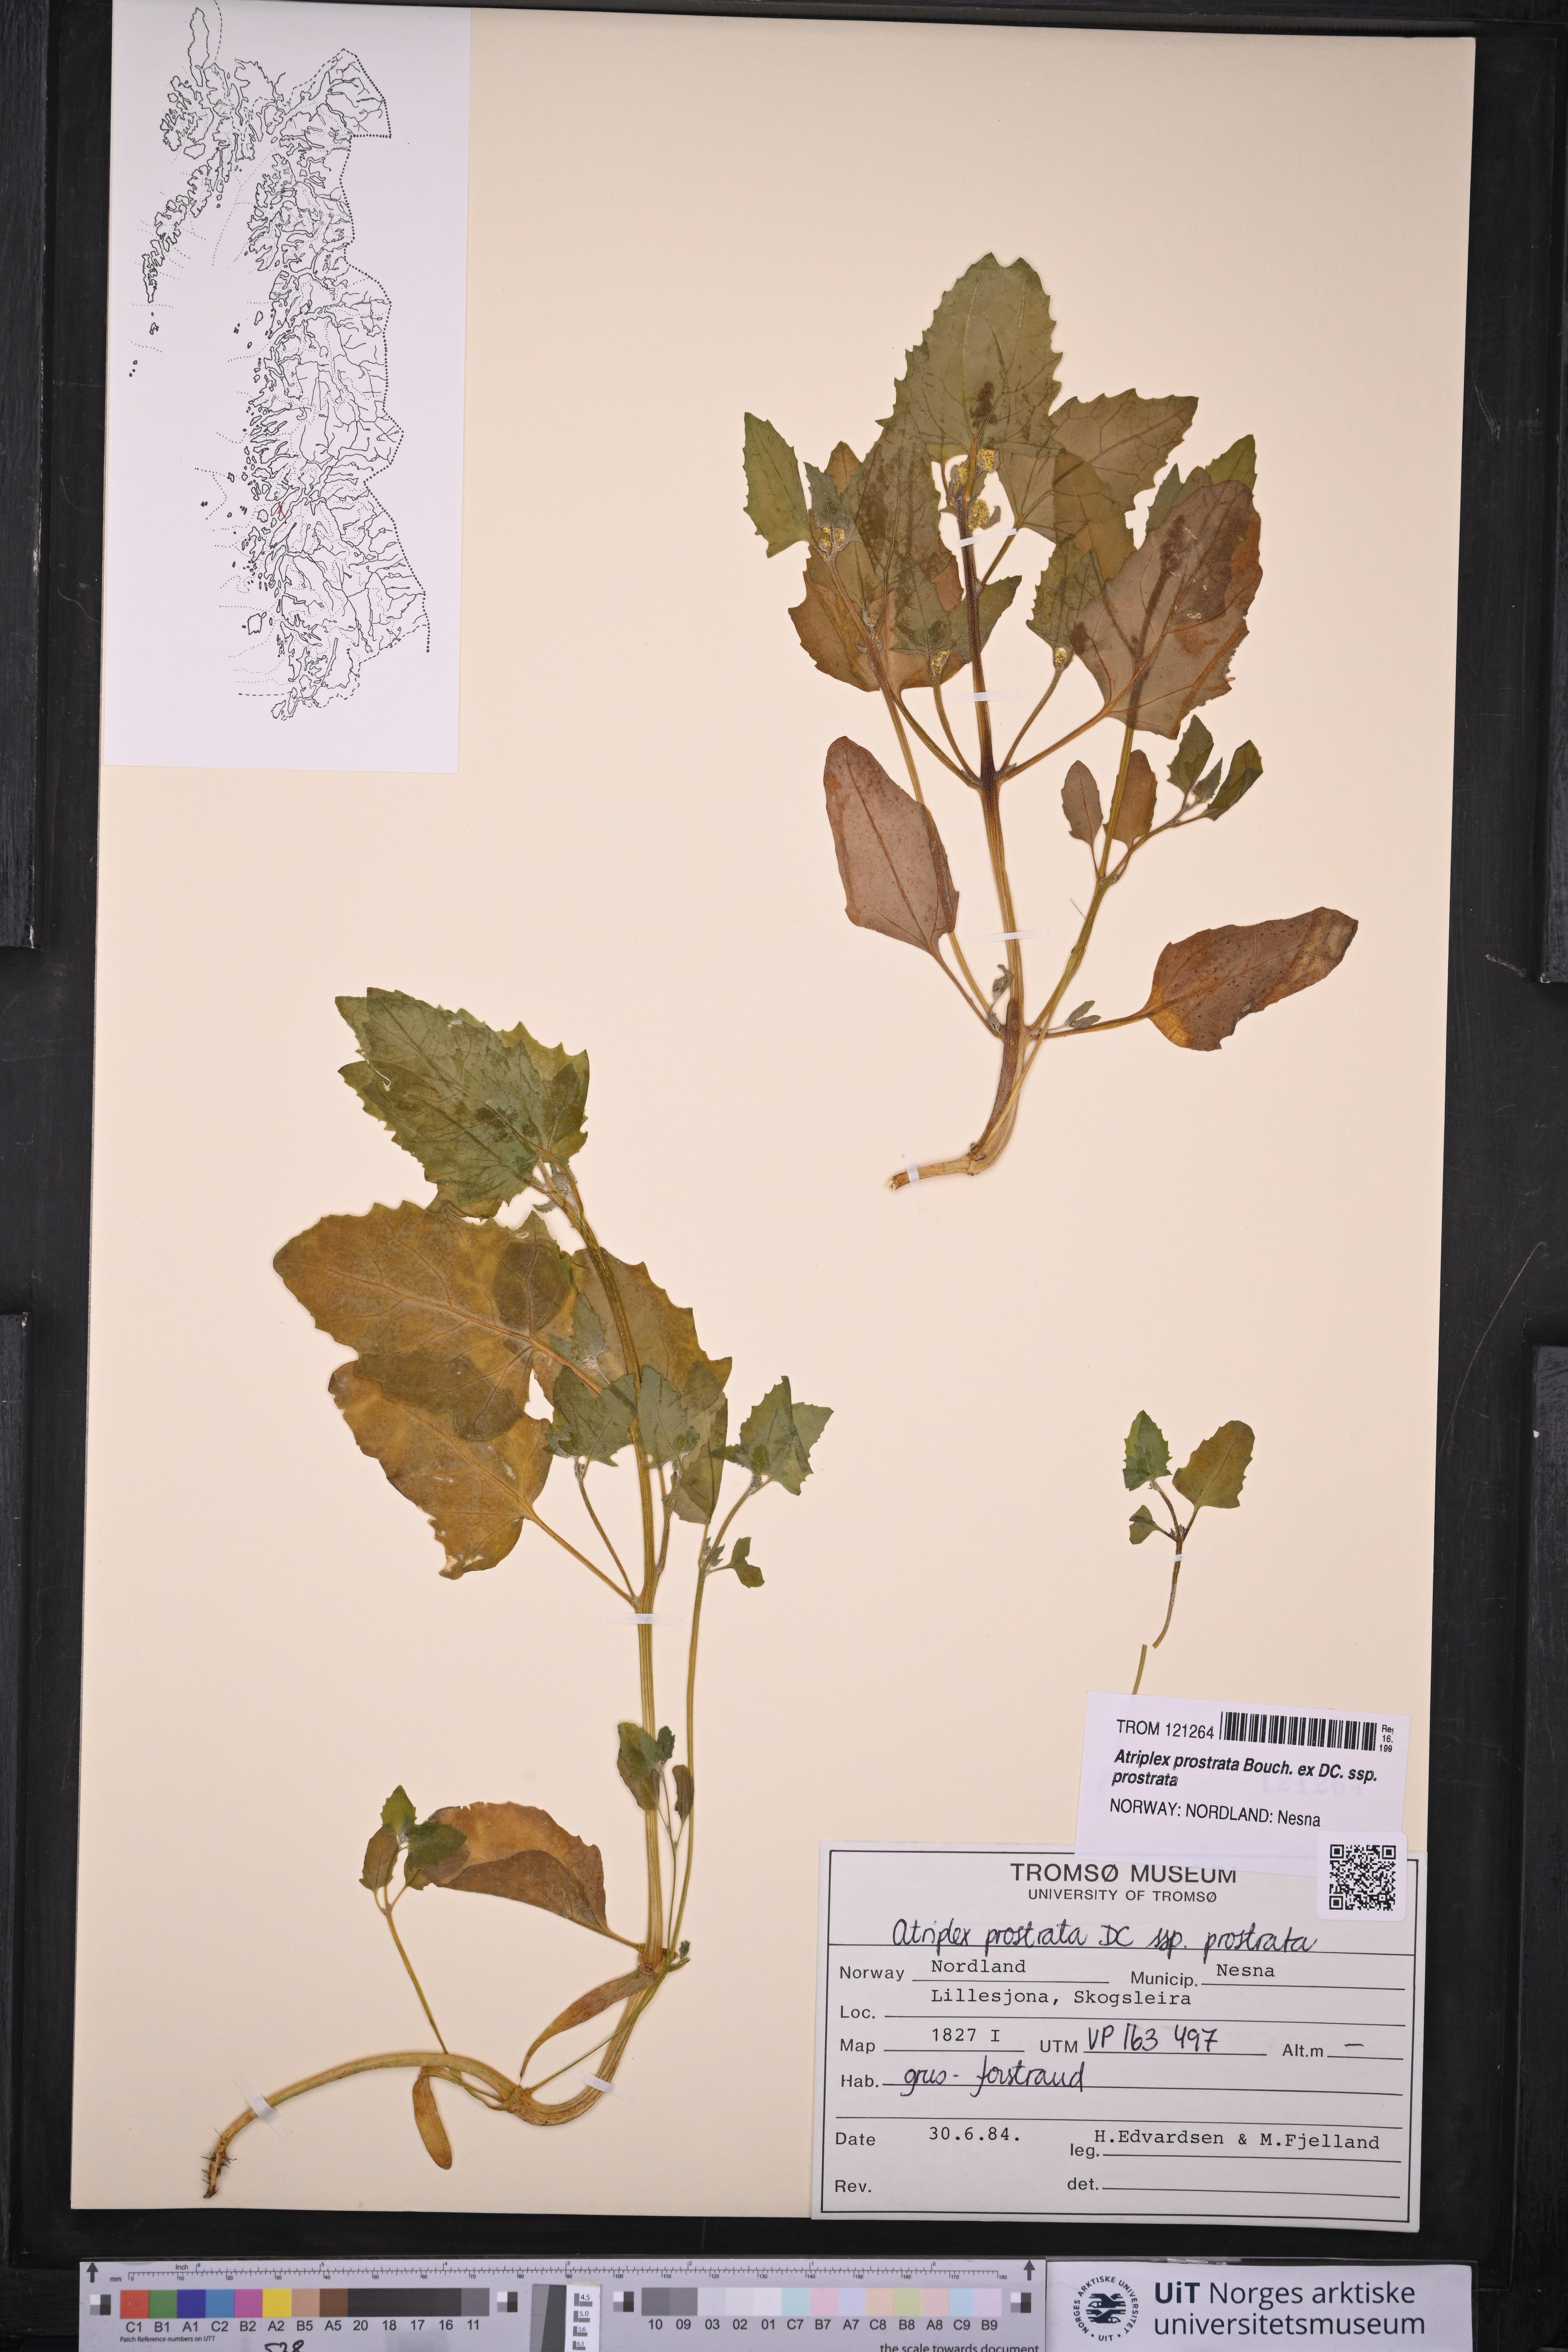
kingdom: Plantae
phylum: Tracheophyta
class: Magnoliopsida
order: Caryophyllales
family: Amaranthaceae
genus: Atriplex
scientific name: Atriplex prostrata
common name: Spear-leaved orache
